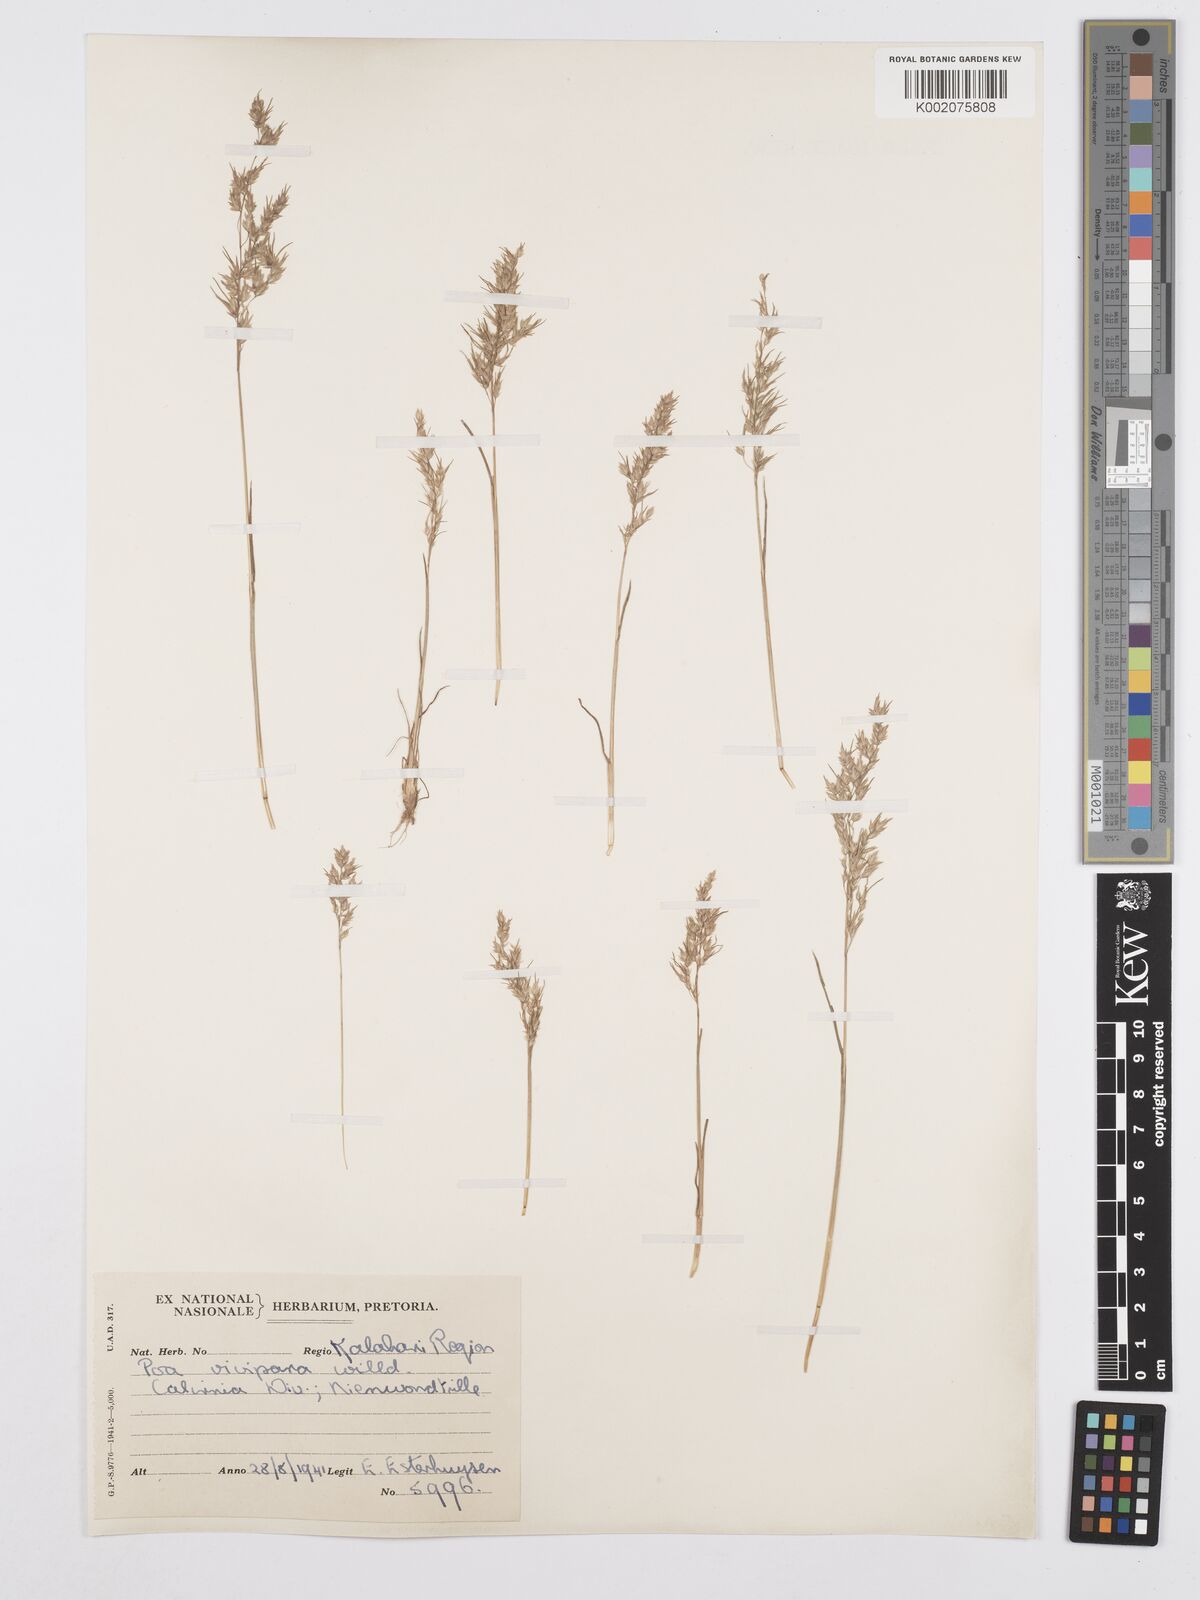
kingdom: Plantae
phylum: Tracheophyta
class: Liliopsida
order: Poales
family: Poaceae
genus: Poa
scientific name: Poa bulbosa
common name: Bulbous bluegrass
